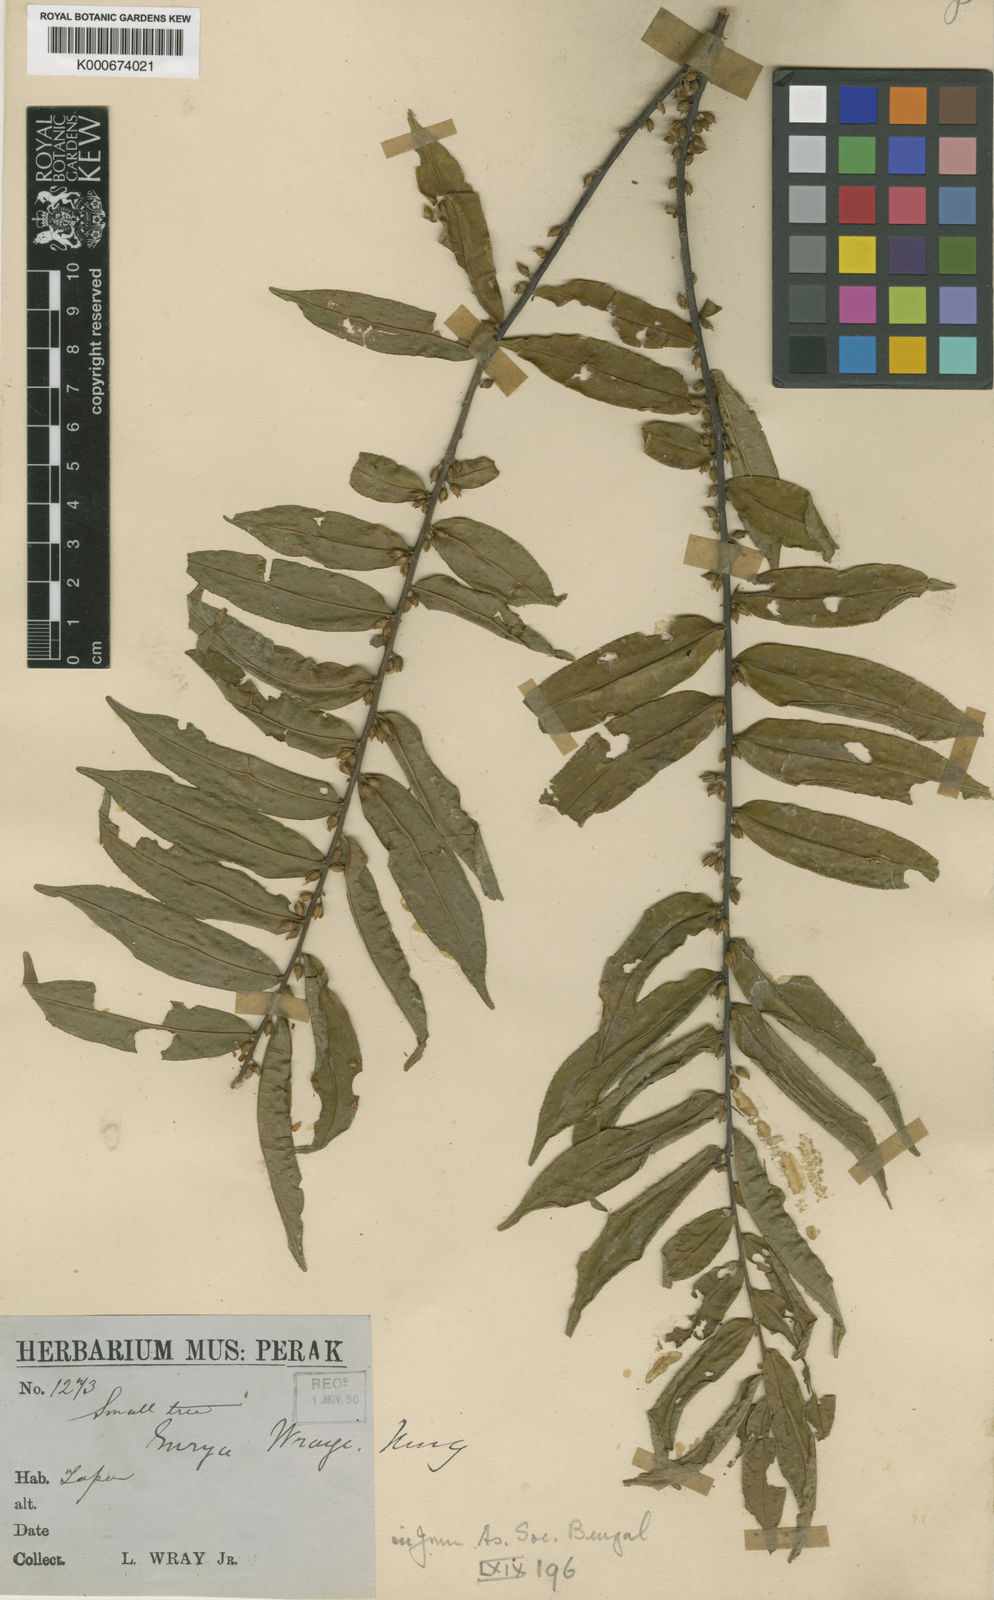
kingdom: Plantae
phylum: Tracheophyta
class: Magnoliopsida
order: Ericales
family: Pentaphylacaceae
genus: Eurya
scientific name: Eurya acuminata
